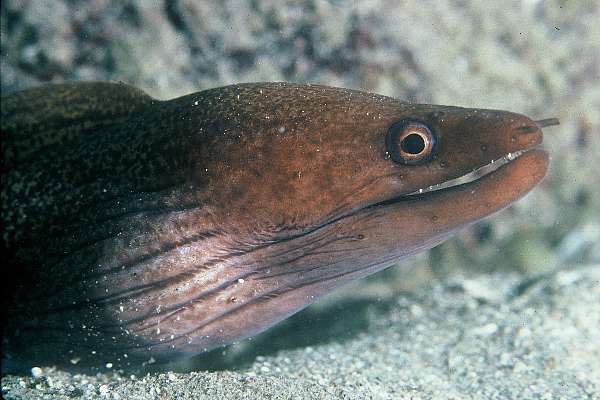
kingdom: Animalia
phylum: Chordata
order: Anguilliformes
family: Muraenidae
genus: Gymnothorax
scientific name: Gymnothorax undulatus
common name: Leopard moray
